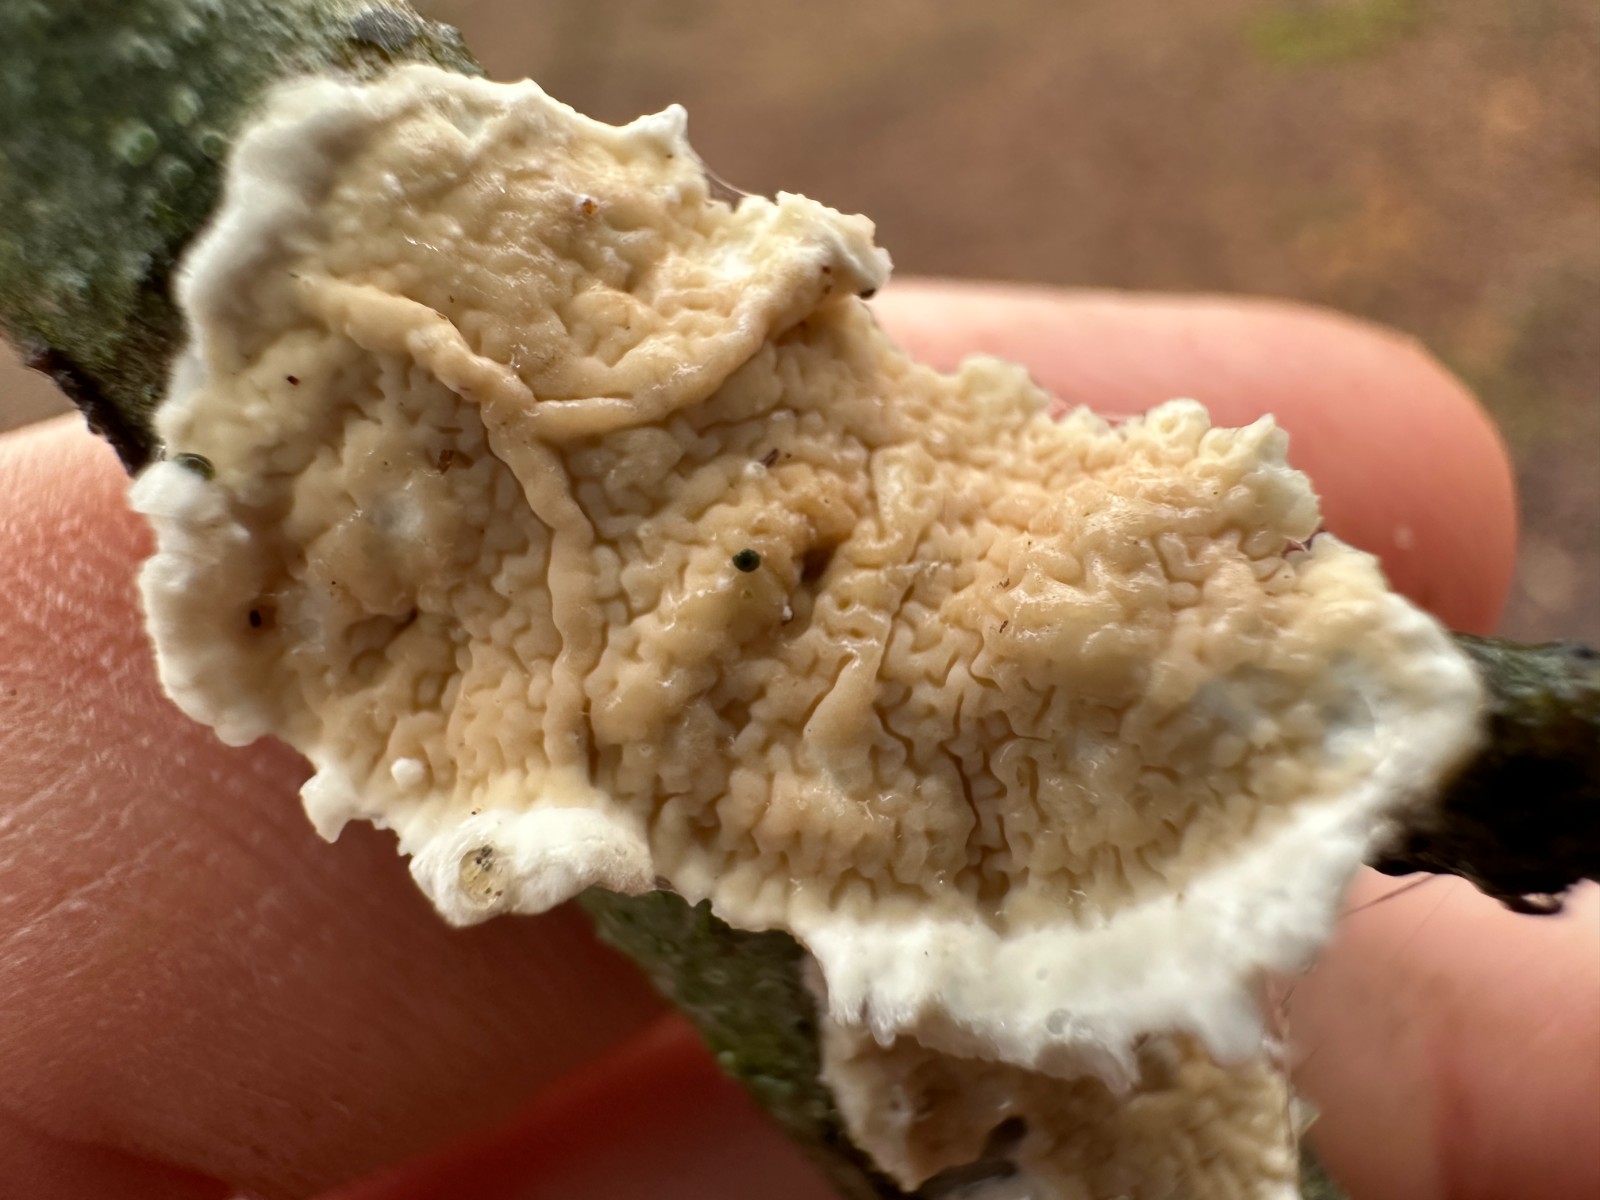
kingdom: Fungi
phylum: Basidiomycota
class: Agaricomycetes
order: Polyporales
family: Irpicaceae
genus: Byssomerulius
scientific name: Byssomerulius corium
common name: læder-åresvamp
